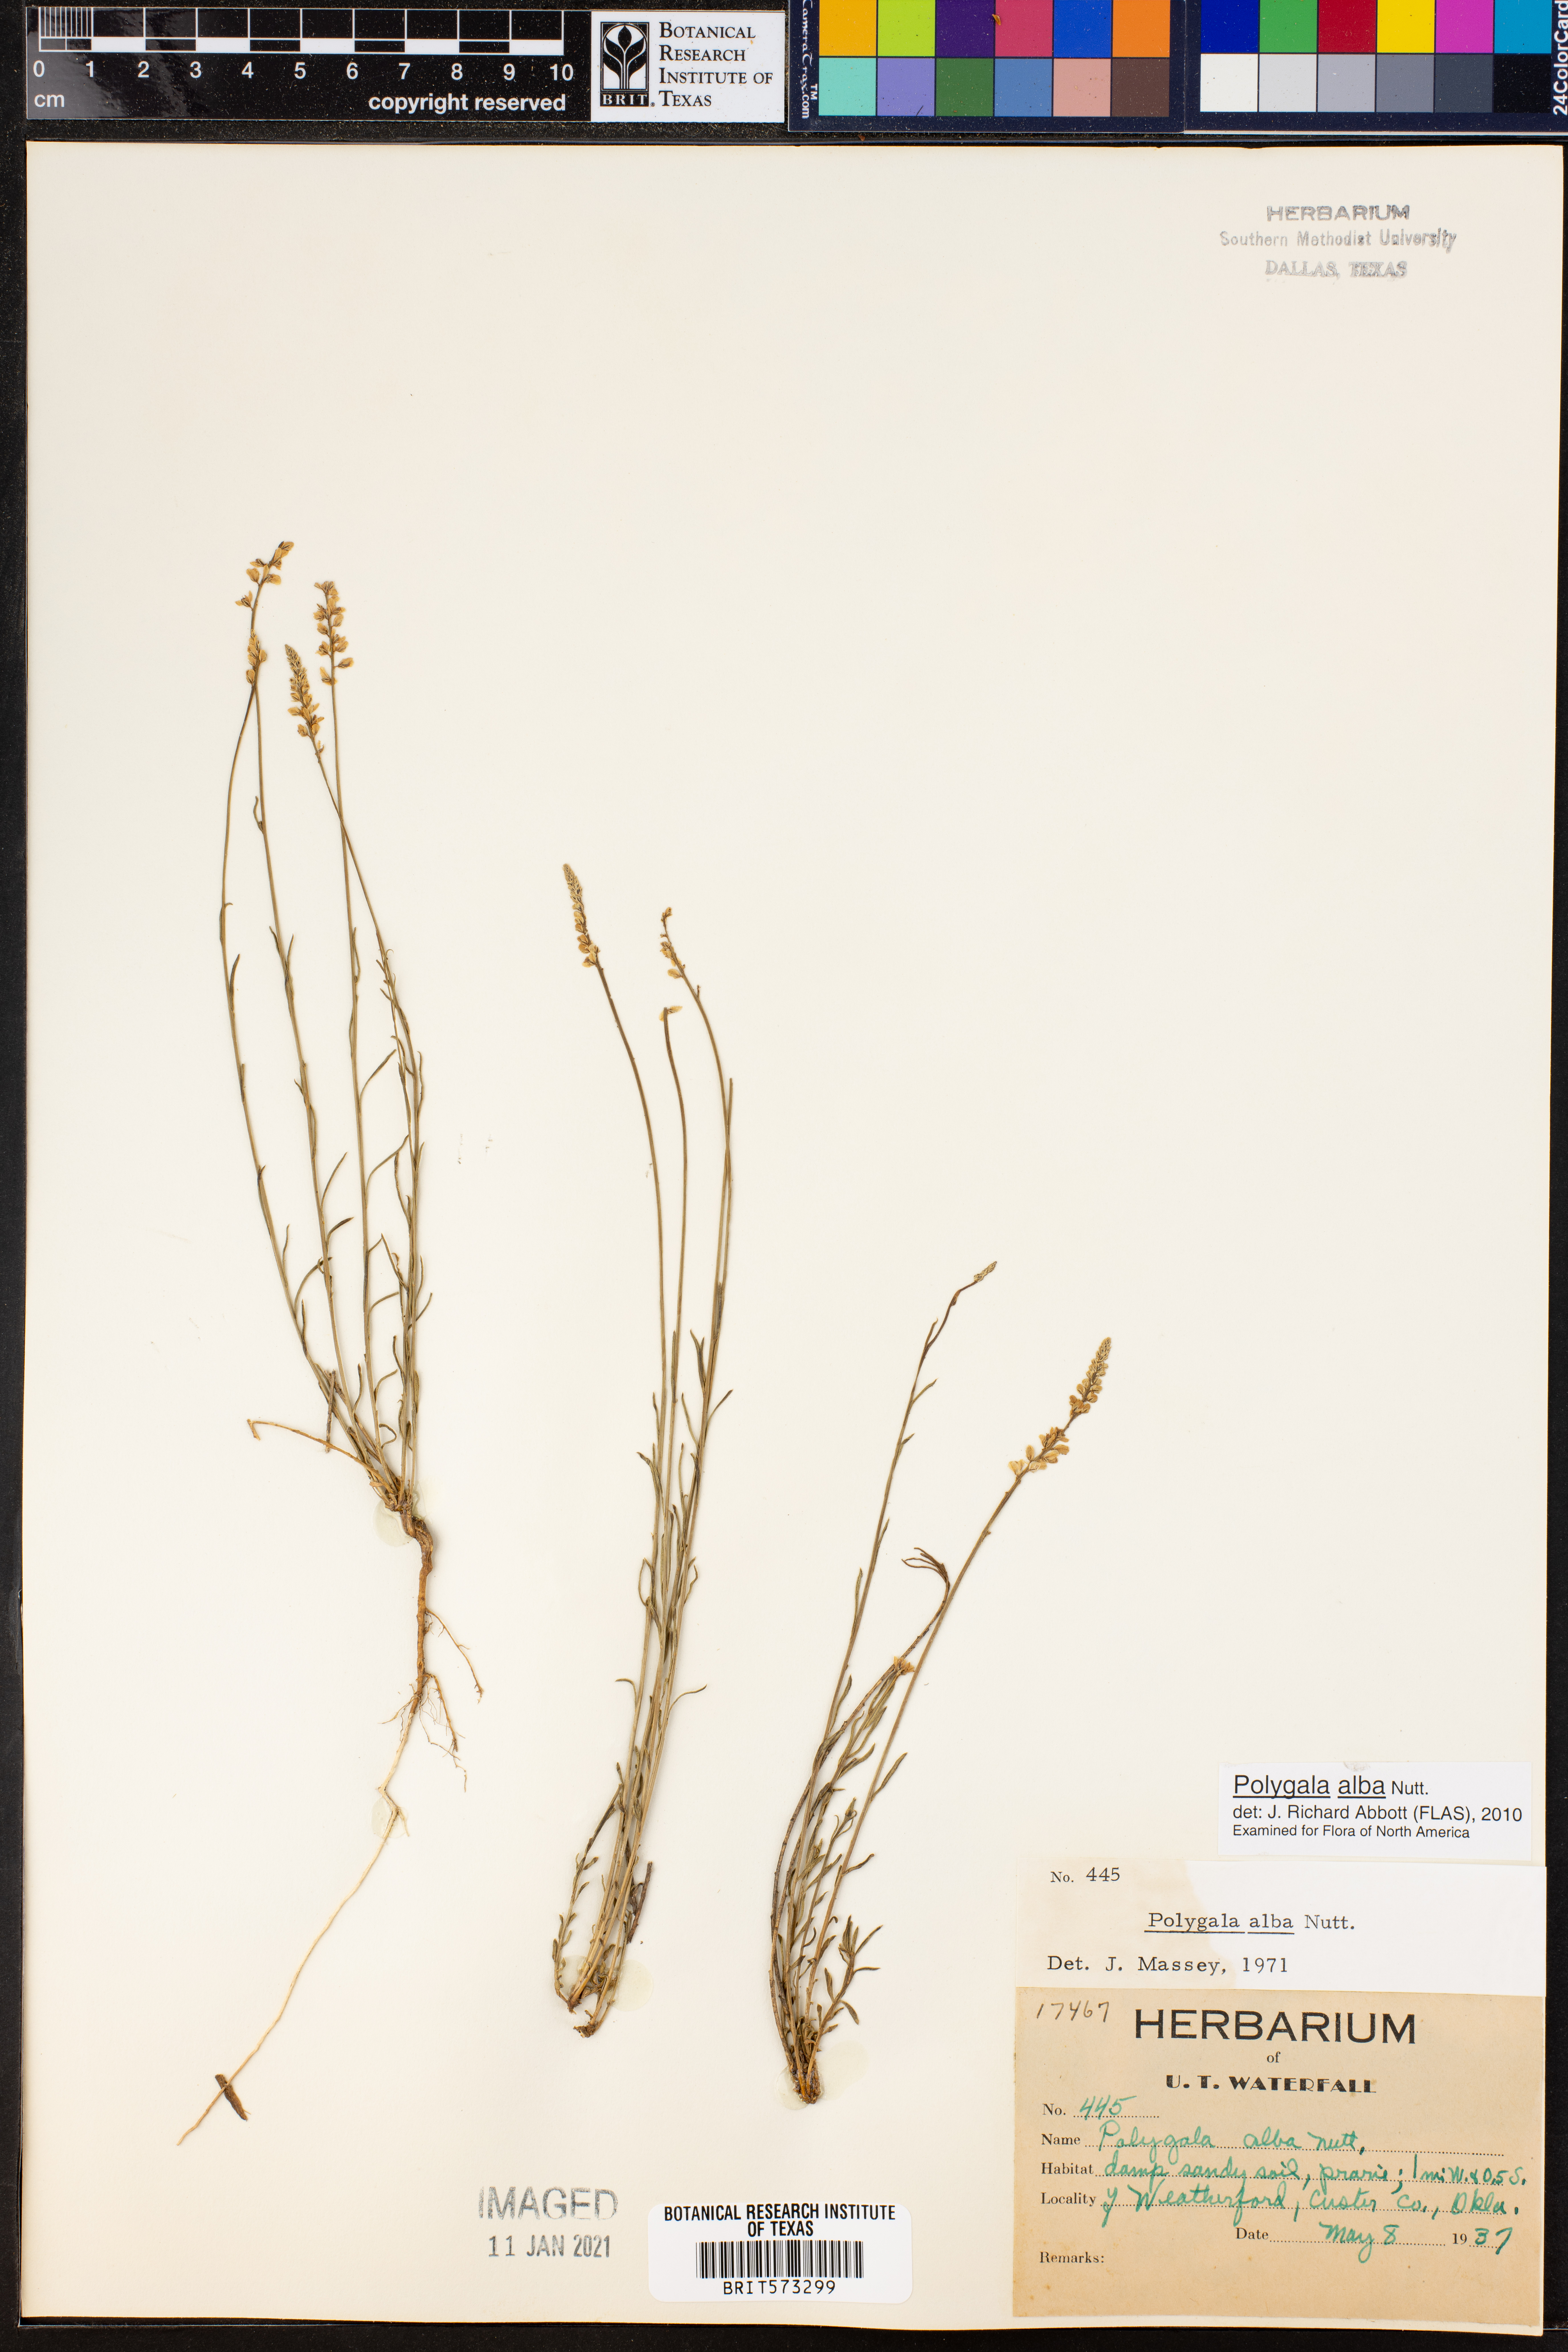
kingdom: Plantae
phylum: Tracheophyta
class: Magnoliopsida
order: Fabales
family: Polygalaceae
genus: Polygala
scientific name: Polygala alba
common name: White milkwort
